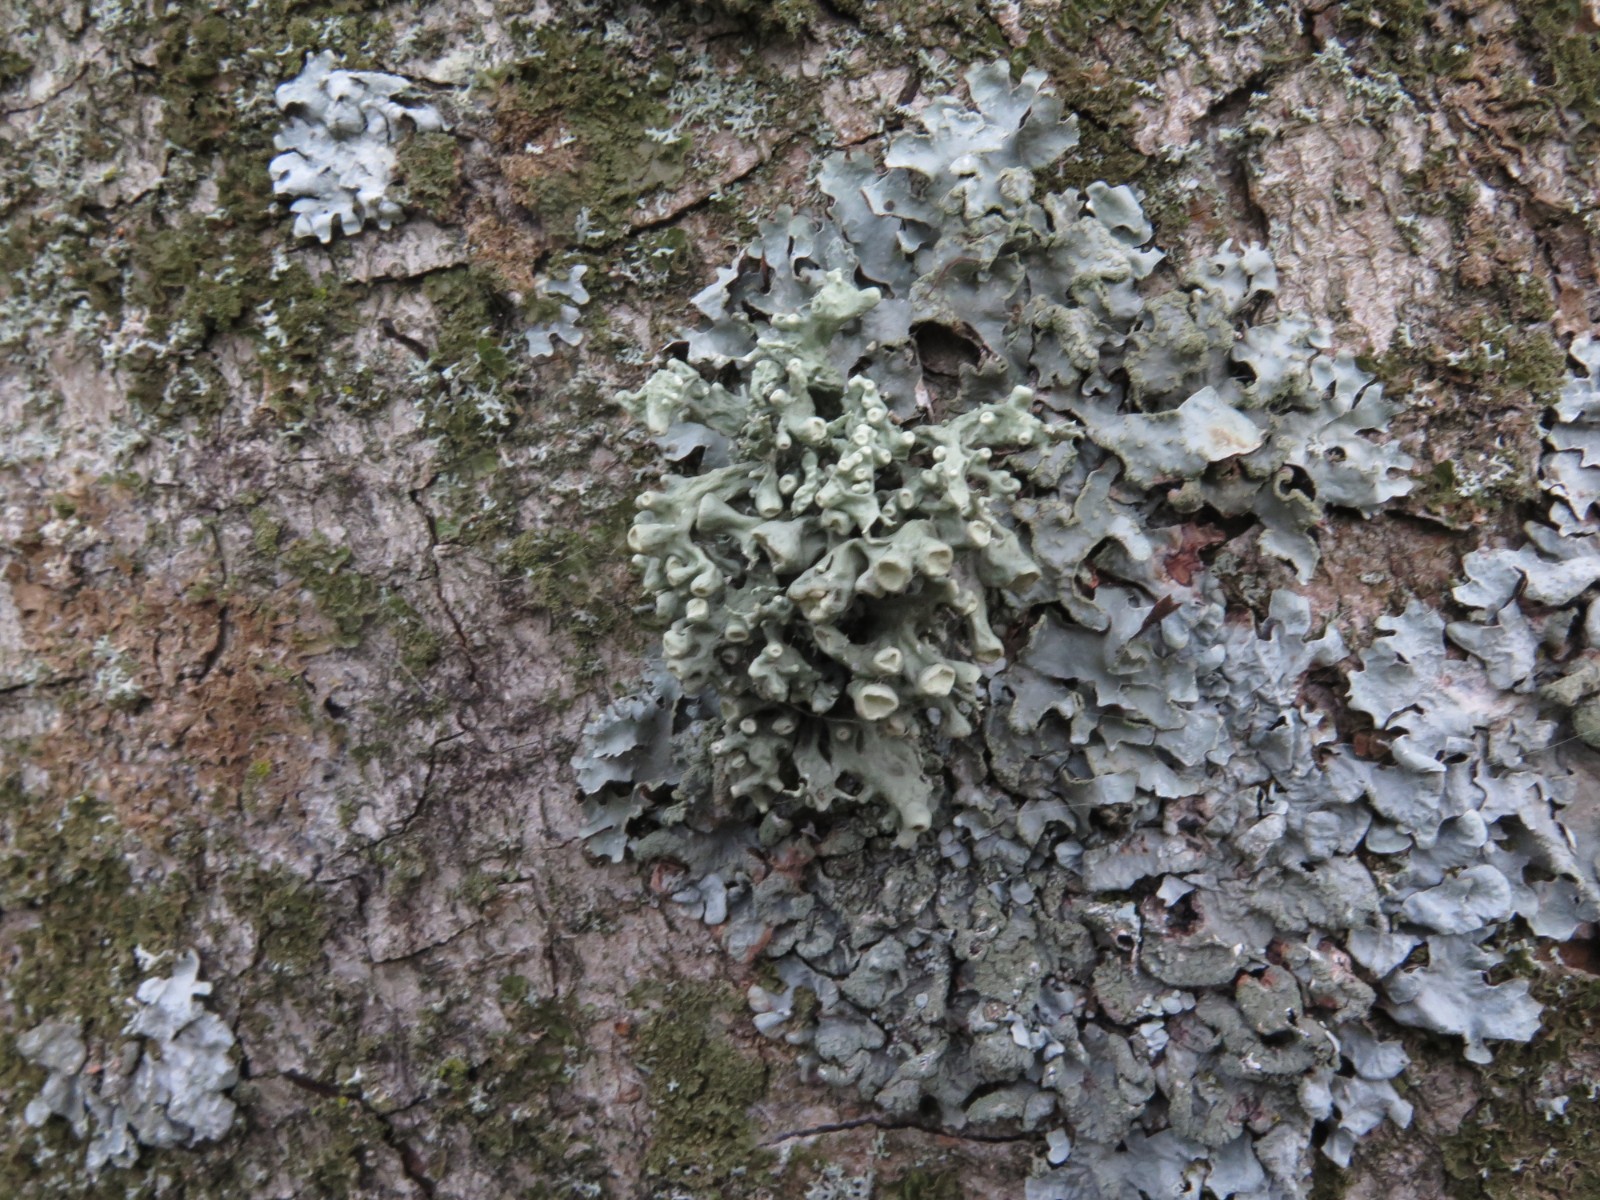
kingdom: Fungi
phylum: Ascomycota
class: Lecanoromycetes
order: Lecanorales
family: Ramalinaceae
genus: Ramalina
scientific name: Ramalina fastigiata
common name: tue-grenlav
